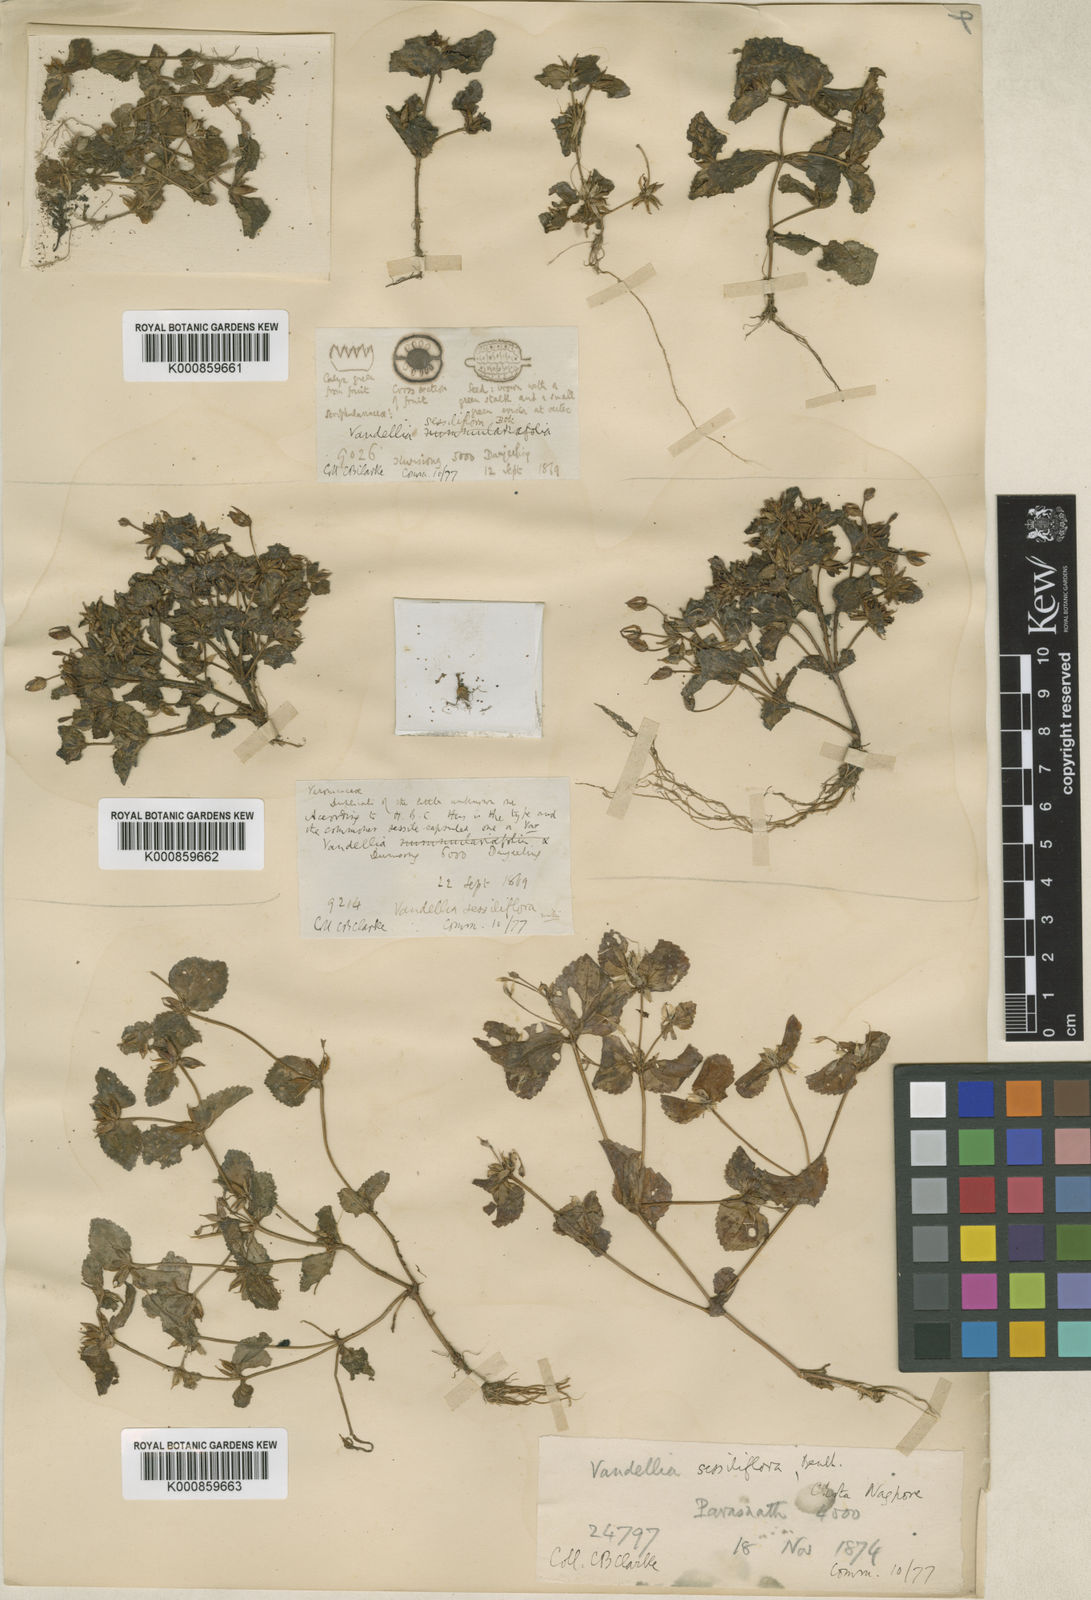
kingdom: Plantae
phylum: Tracheophyta
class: Magnoliopsida
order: Lamiales
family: Linderniaceae
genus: Craterostigma
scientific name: Craterostigma sessiliflorum
